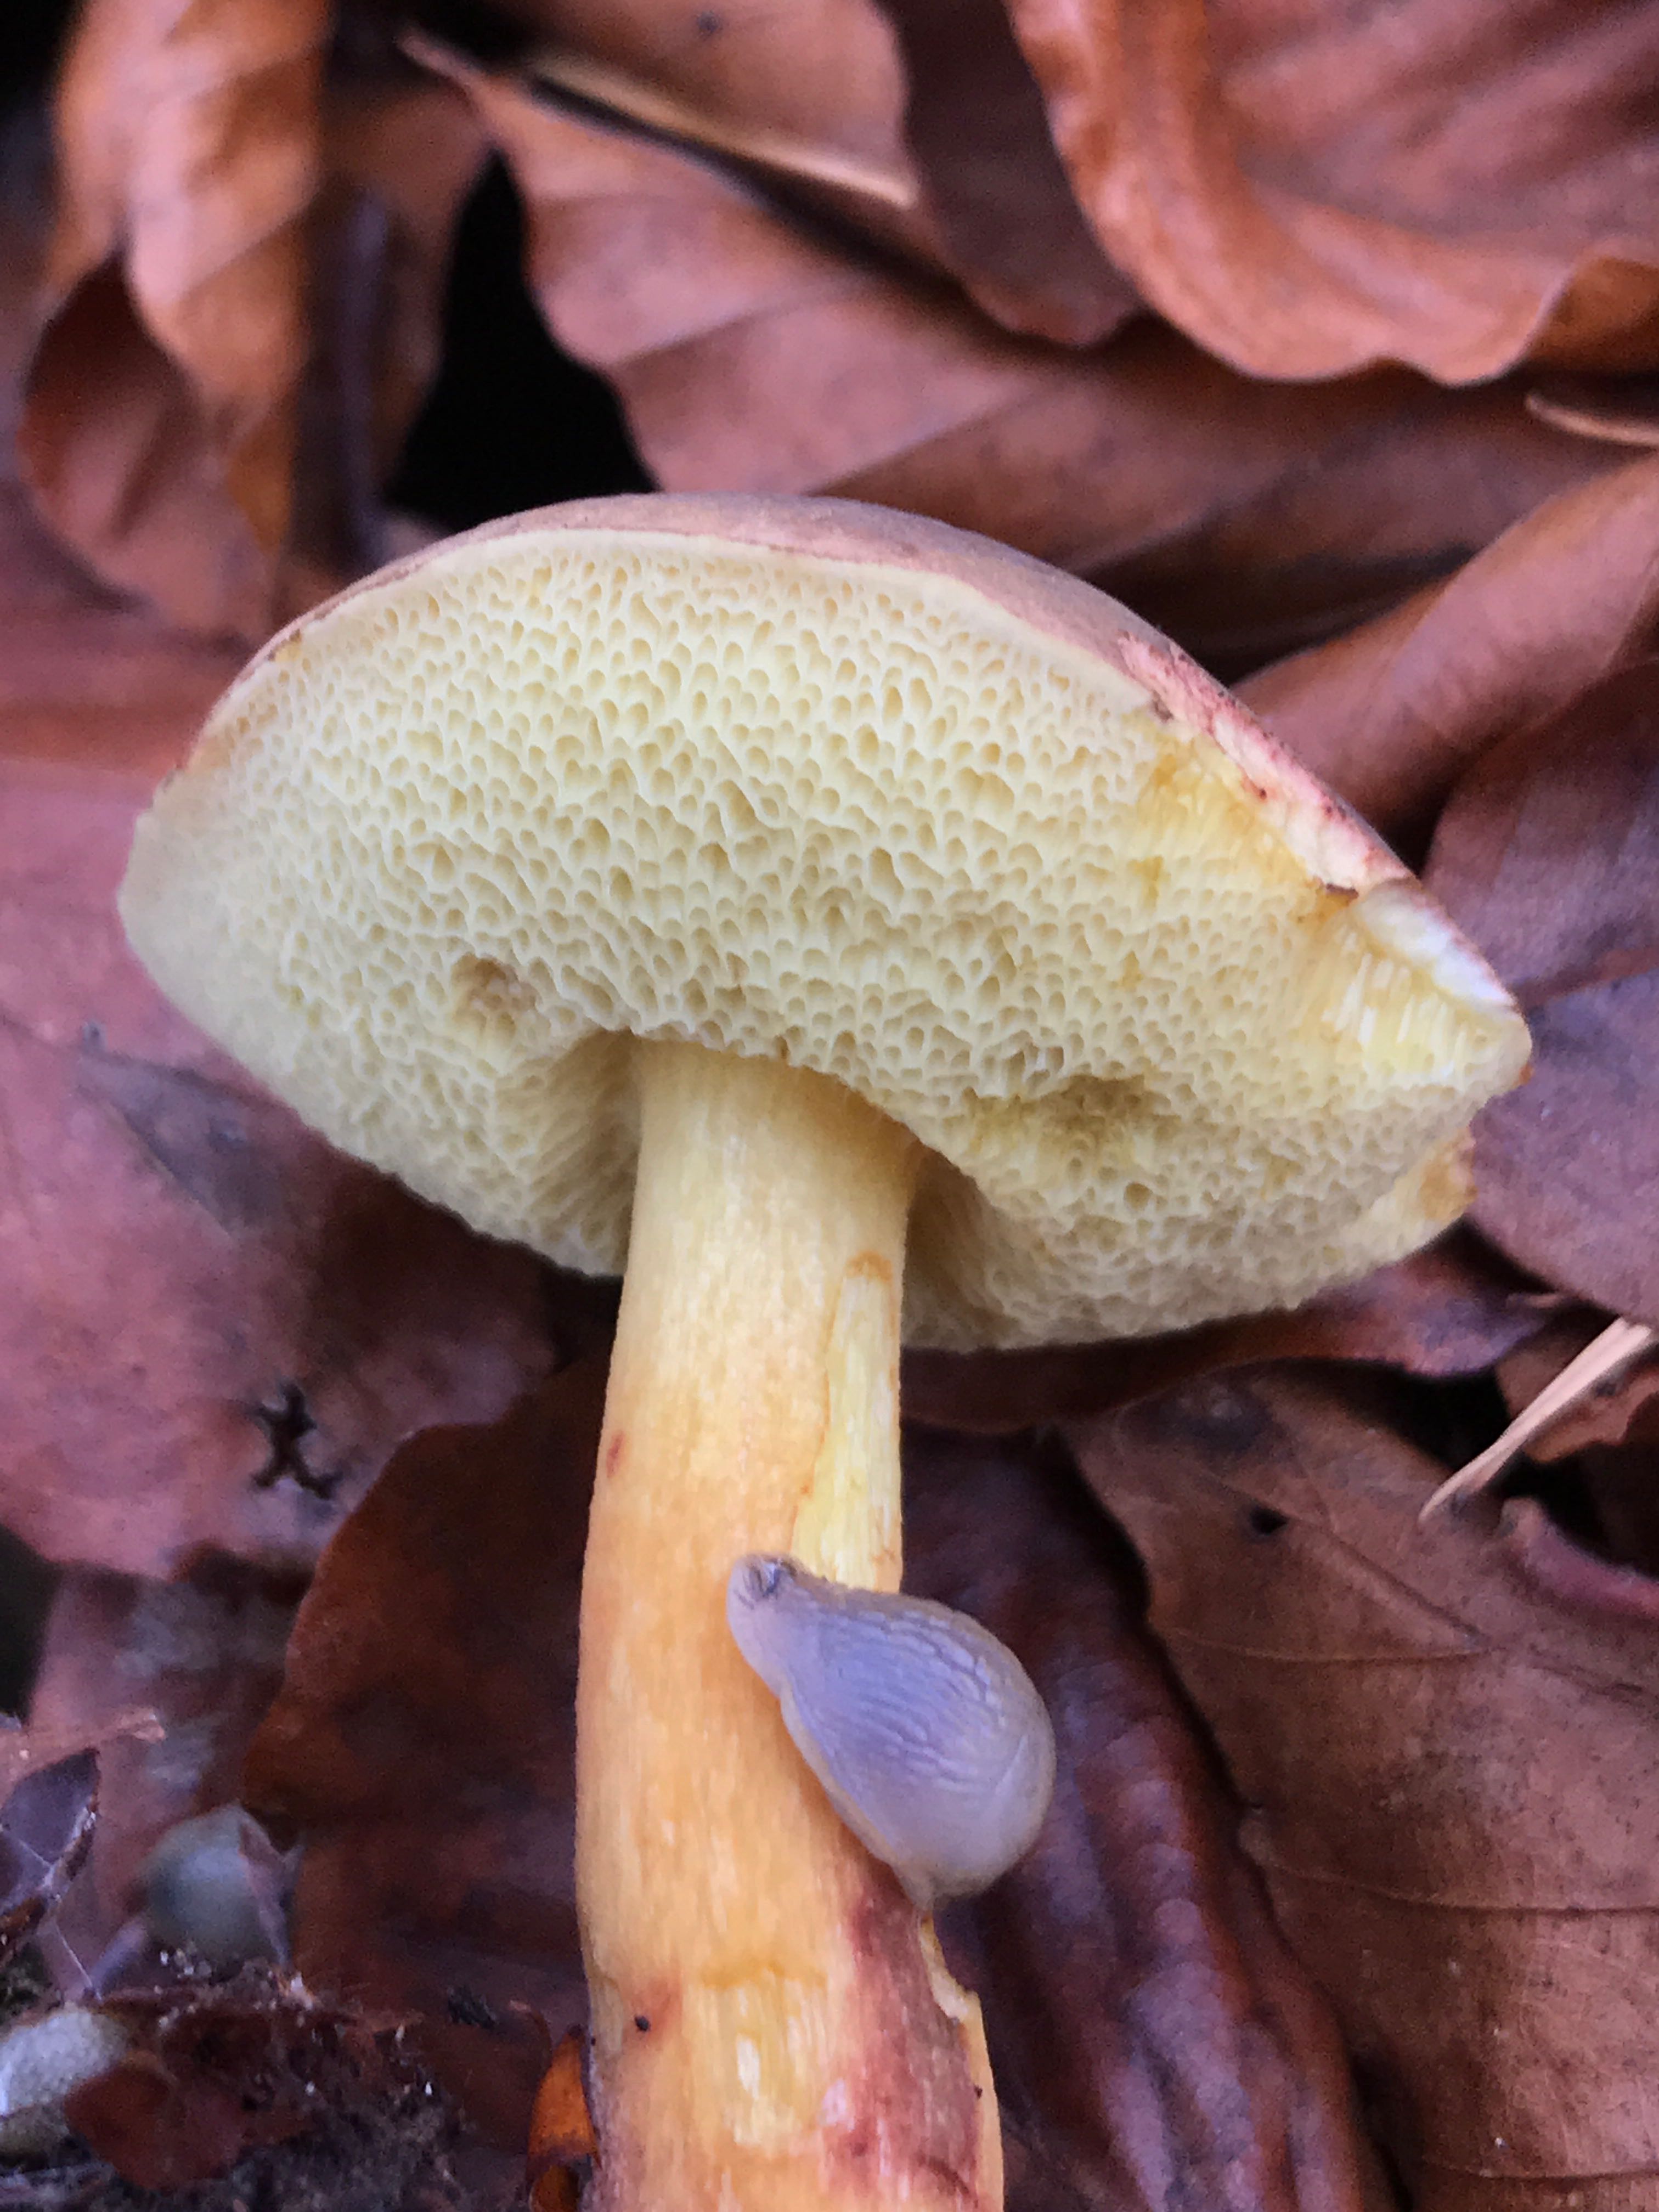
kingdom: Fungi
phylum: Basidiomycota
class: Agaricomycetes
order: Boletales
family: Boletaceae
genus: Xerocomellus
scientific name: Xerocomellus pruinatus
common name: dugget rørhat
